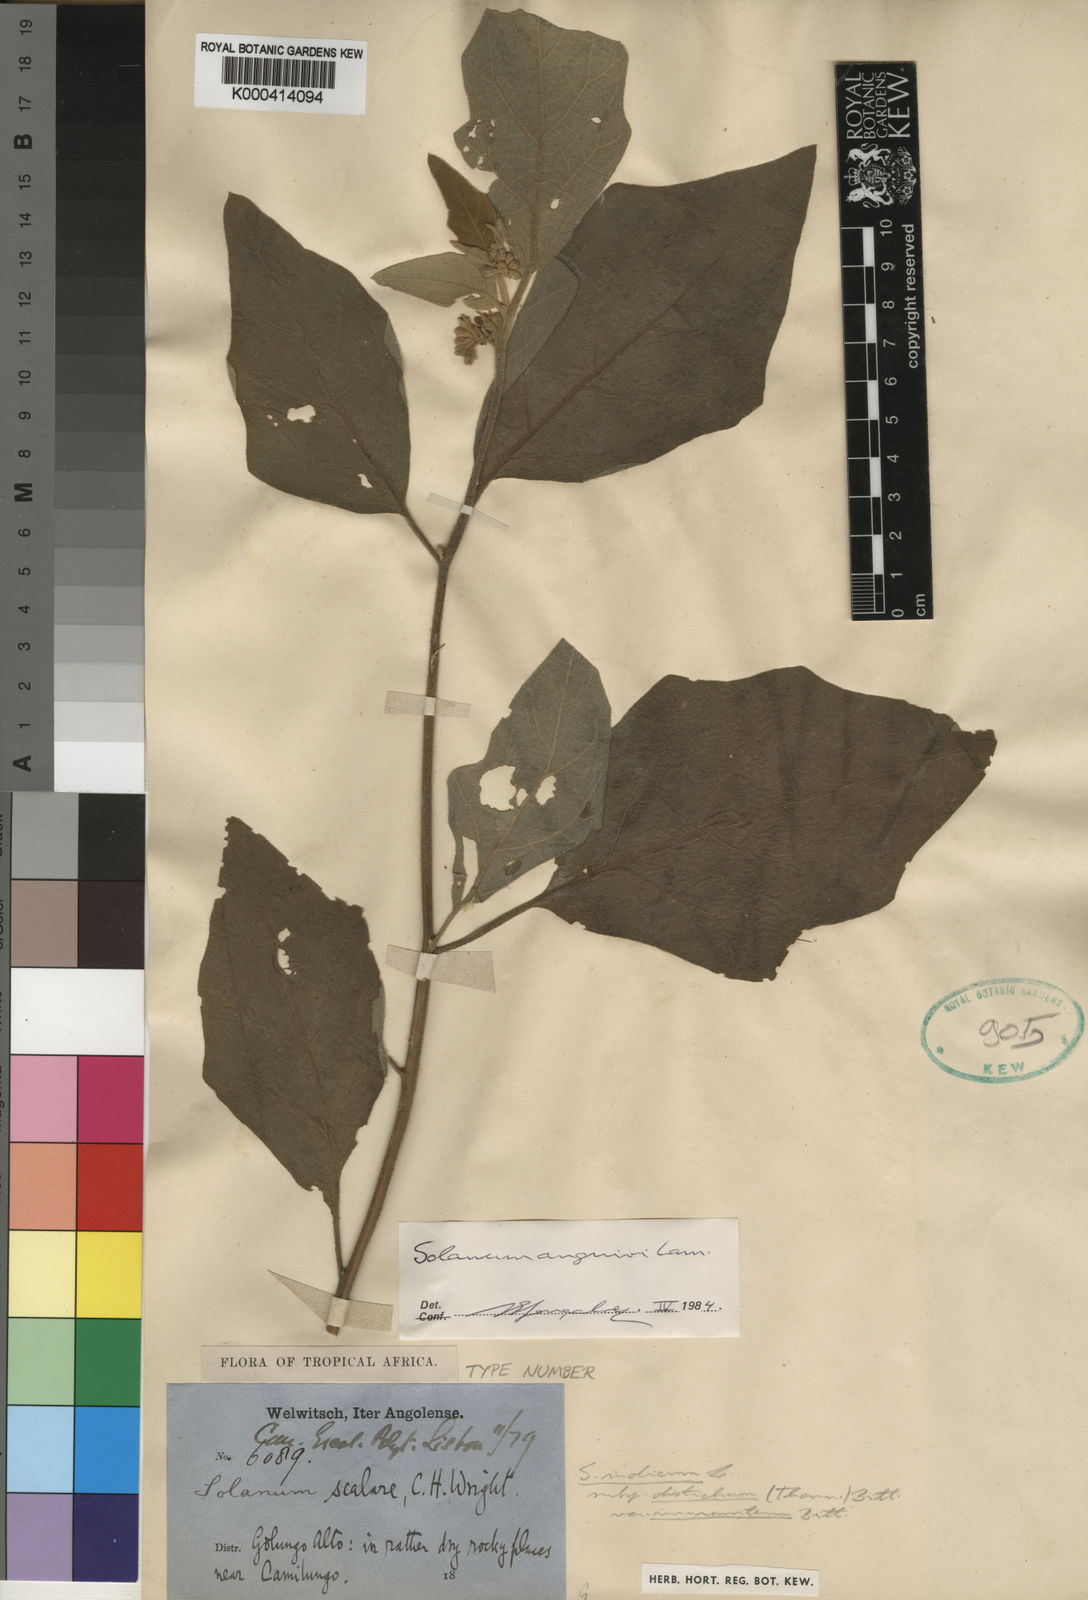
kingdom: Plantae
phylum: Tracheophyta
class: Magnoliopsida
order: Solanales
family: Solanaceae
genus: Solanum
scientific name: Solanum anguivi
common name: Forest bitterberry
